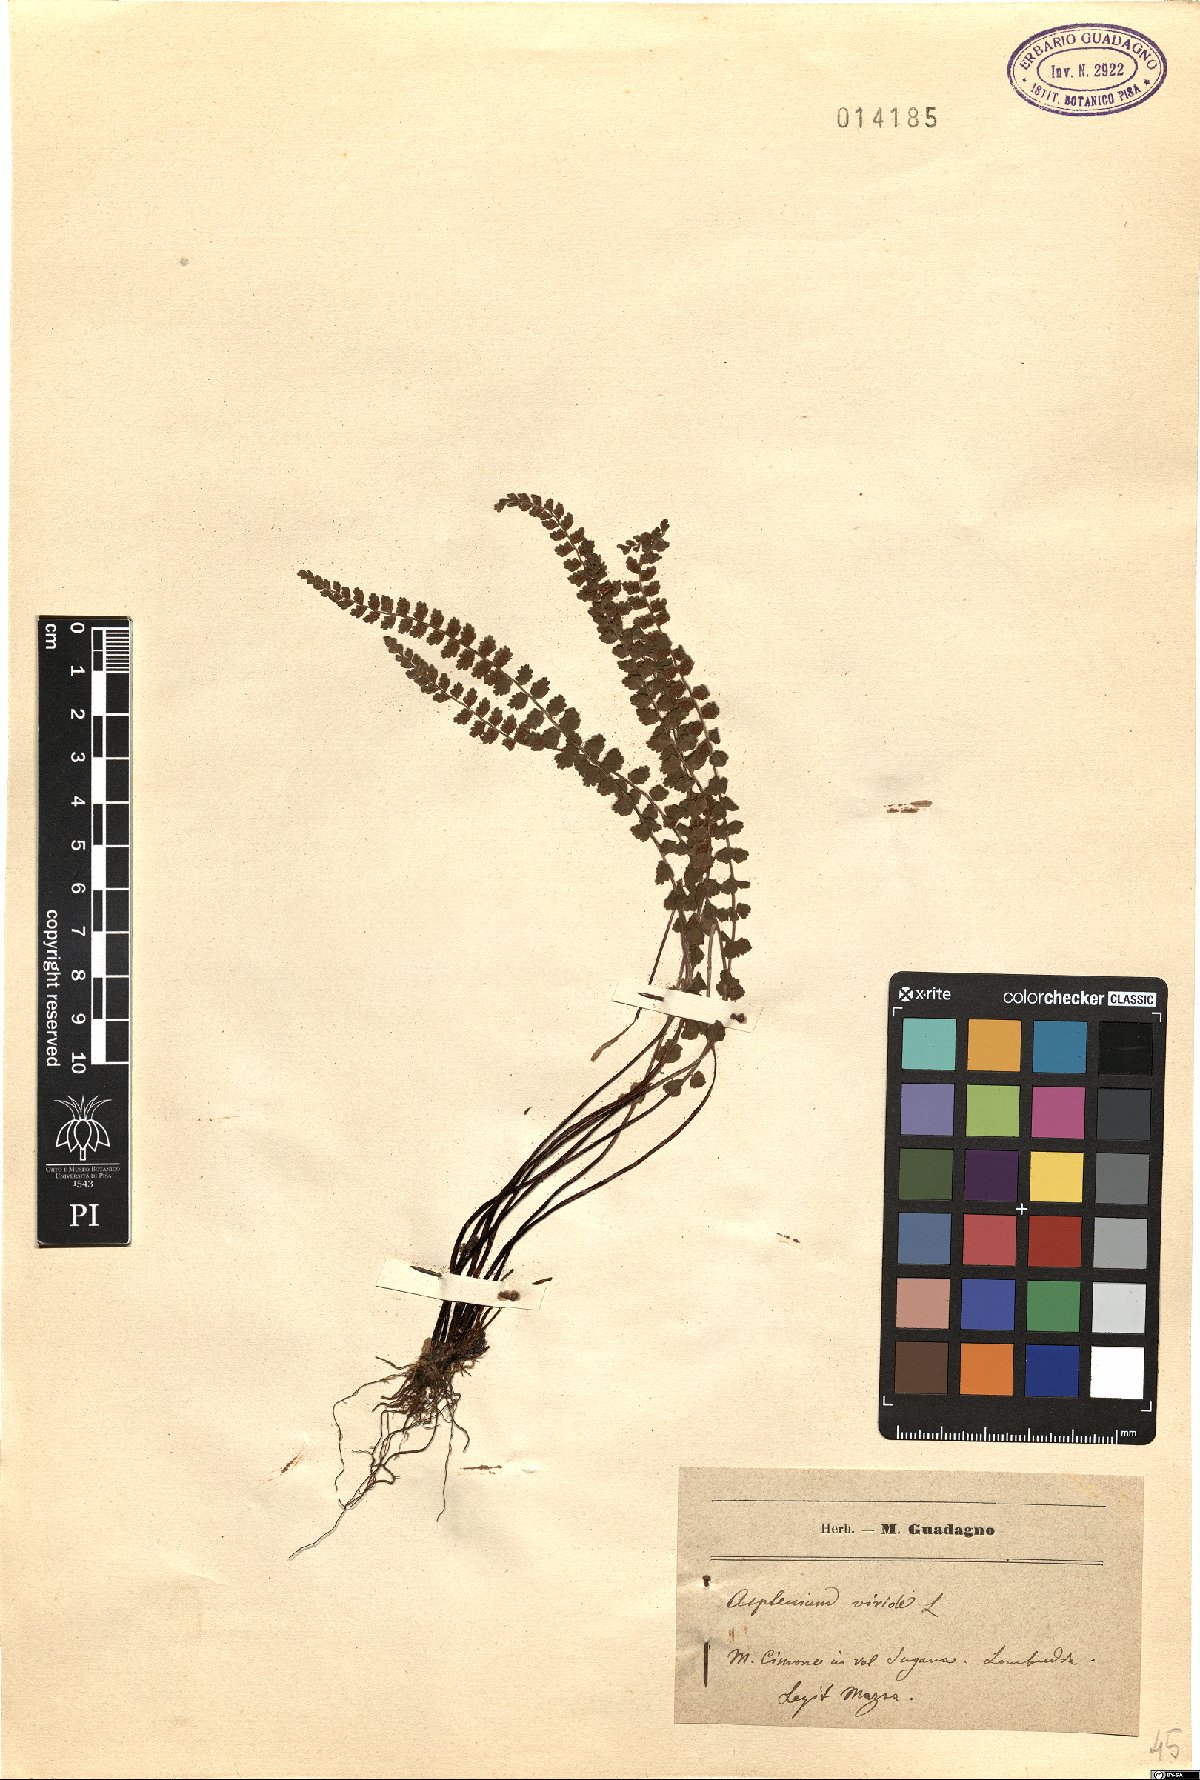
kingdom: Plantae
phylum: Tracheophyta
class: Polypodiopsida
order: Polypodiales
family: Aspleniaceae
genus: Asplenium
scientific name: Asplenium viride
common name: Green spleenwort
